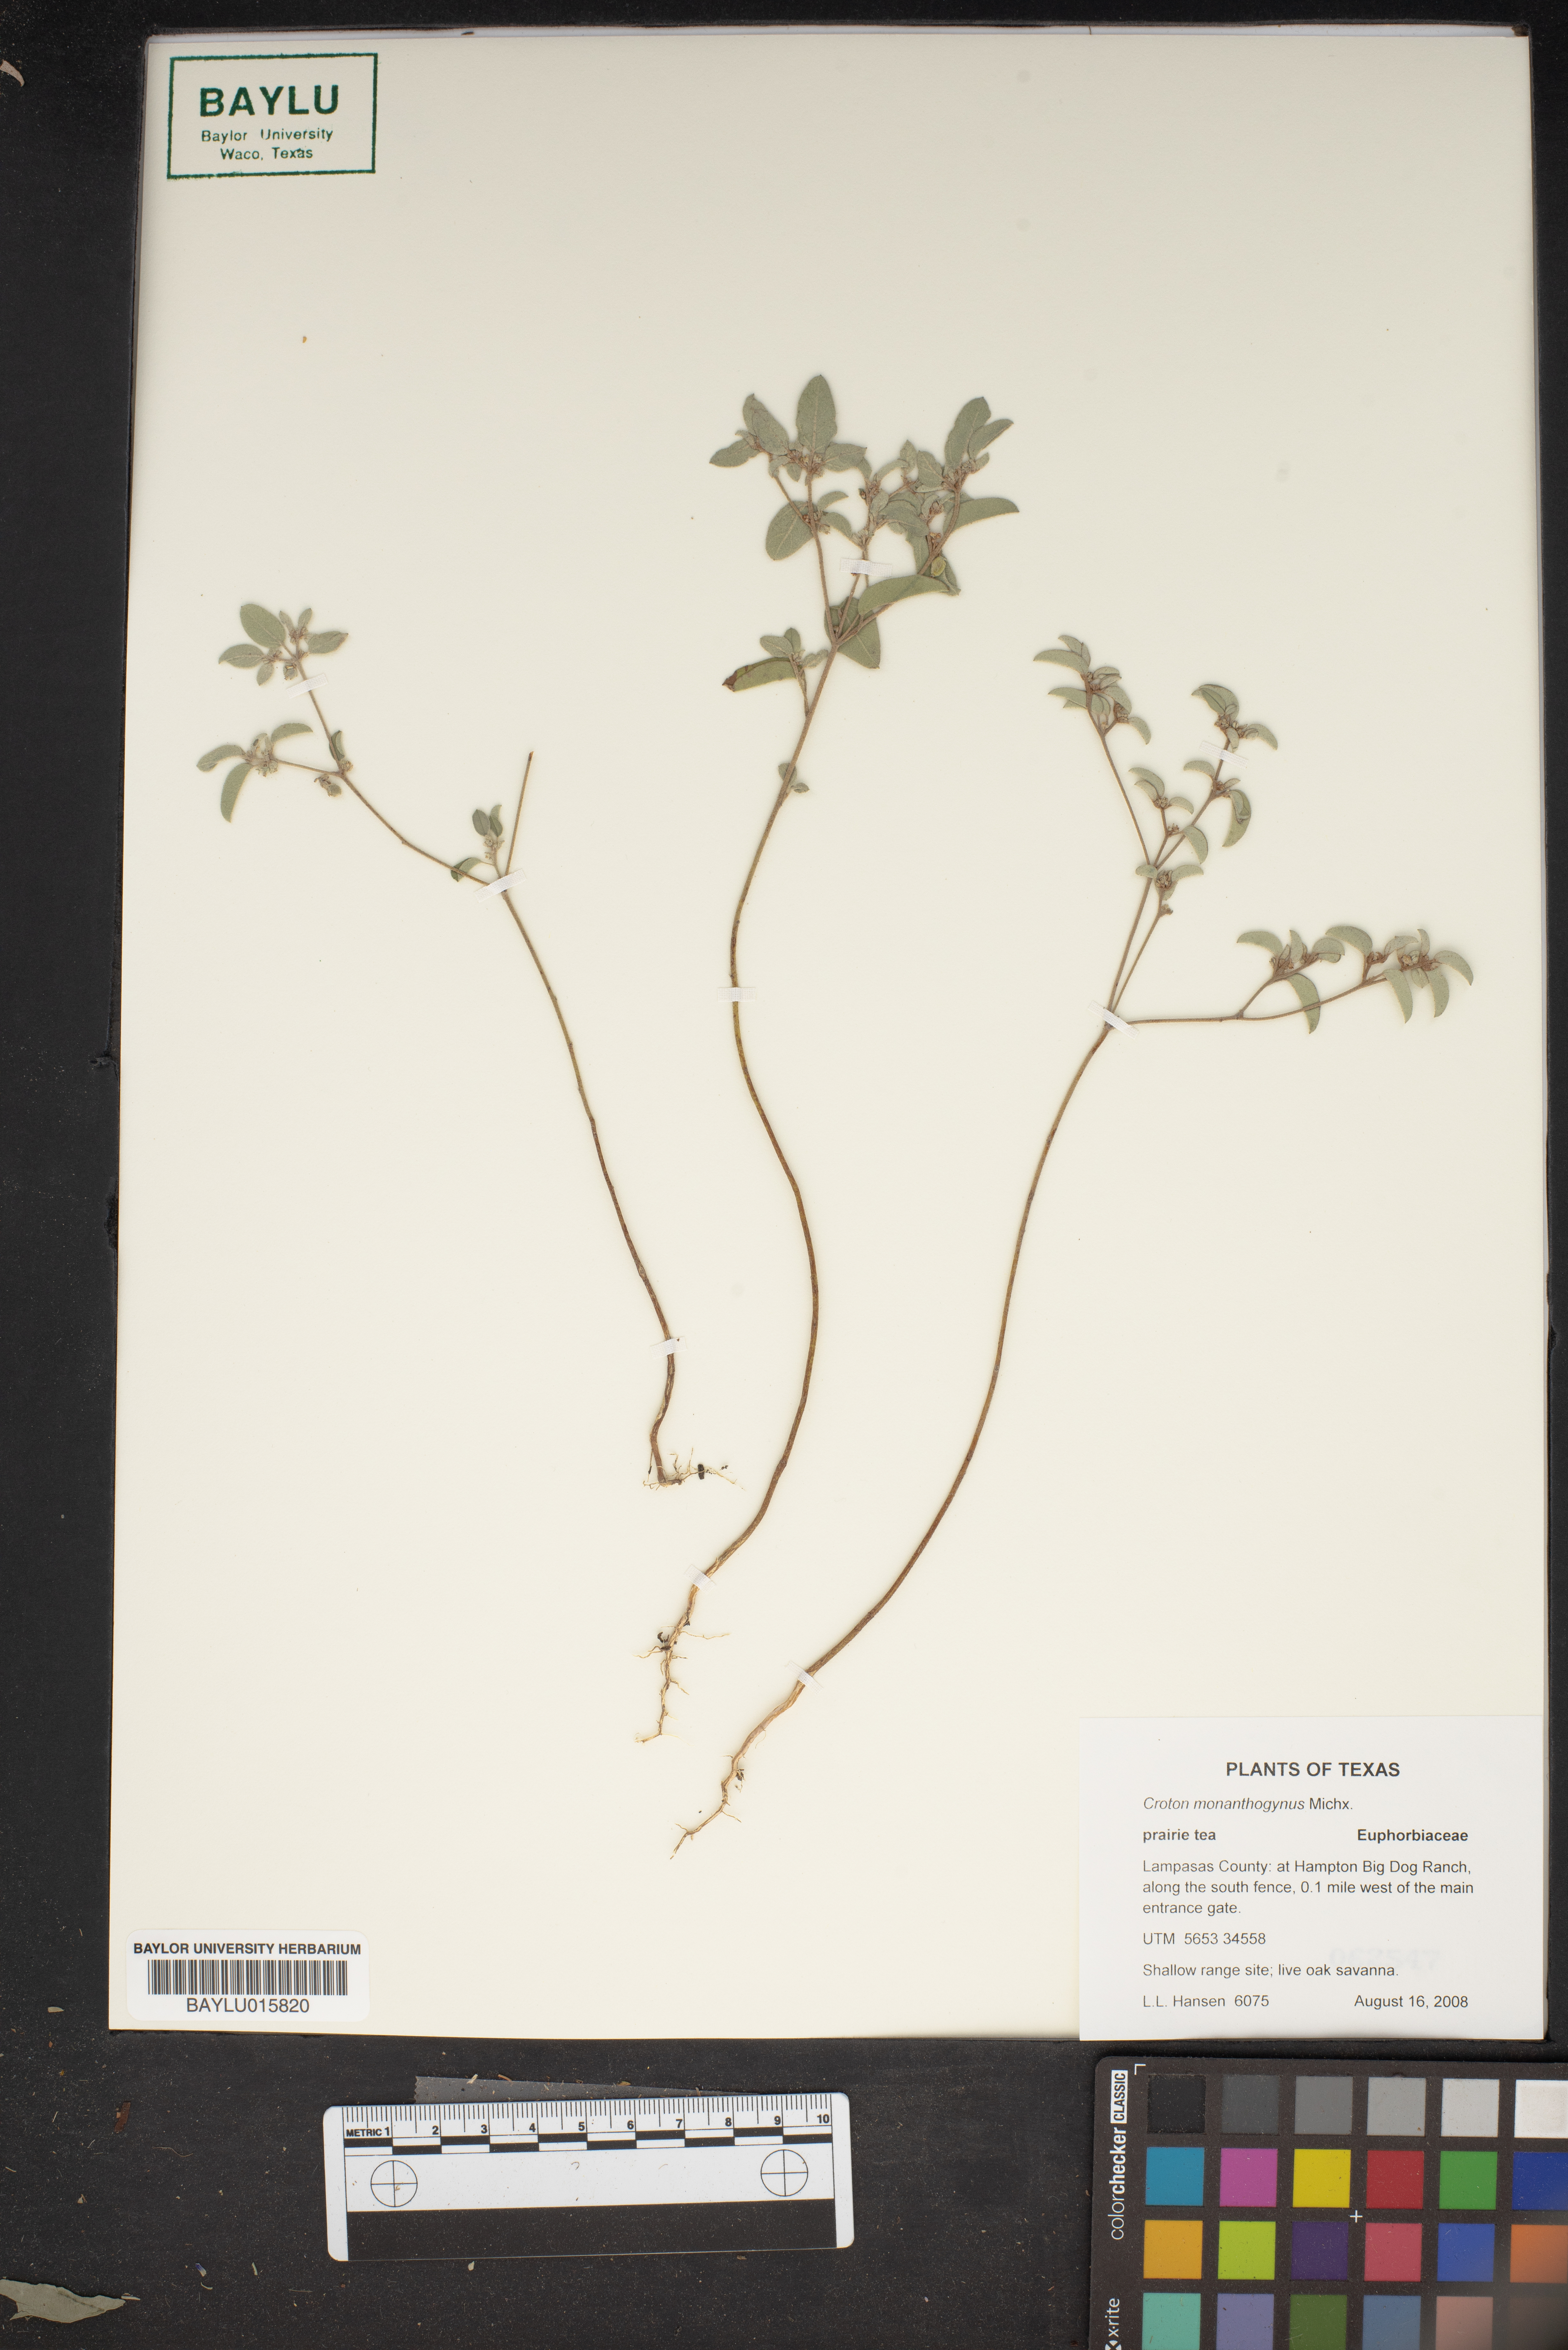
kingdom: Plantae
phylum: Tracheophyta
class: Magnoliopsida
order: Malpighiales
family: Euphorbiaceae
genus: Croton
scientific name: Croton monanthogynus
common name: One-seed croton
